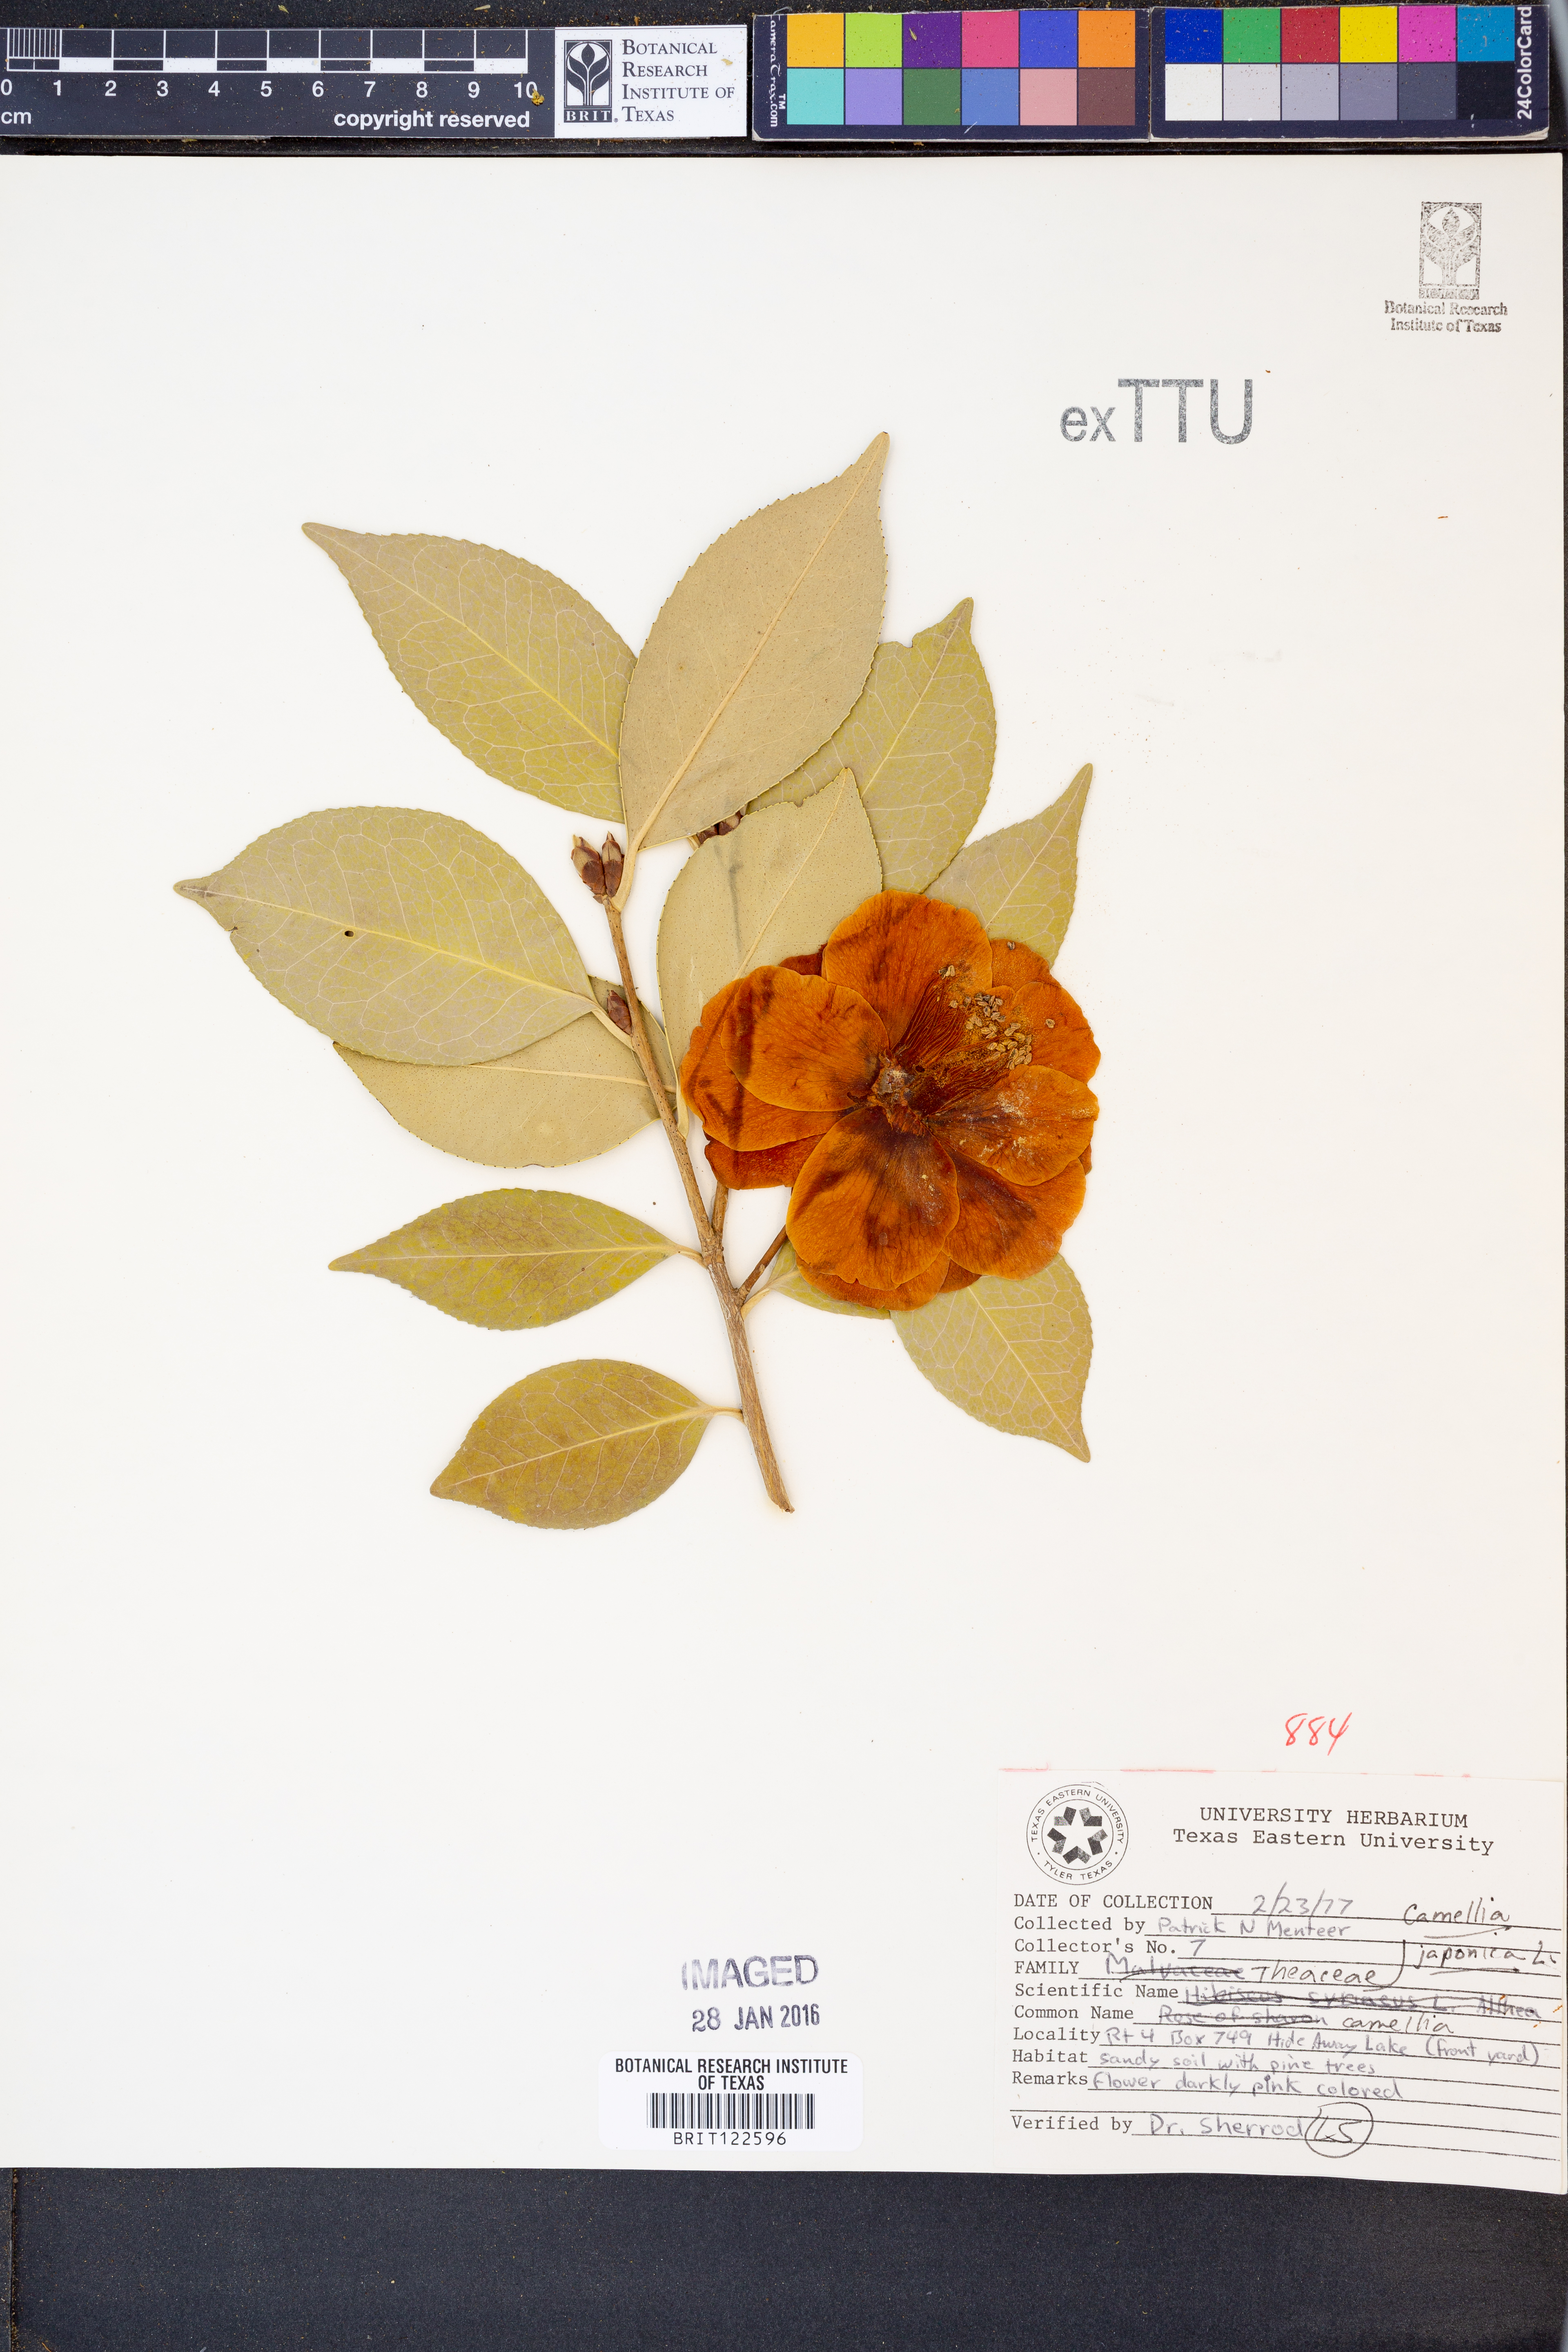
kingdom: Plantae
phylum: Tracheophyta
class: Magnoliopsida
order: Ericales
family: Theaceae
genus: Camellia
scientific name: Camellia japonica
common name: Camellia
